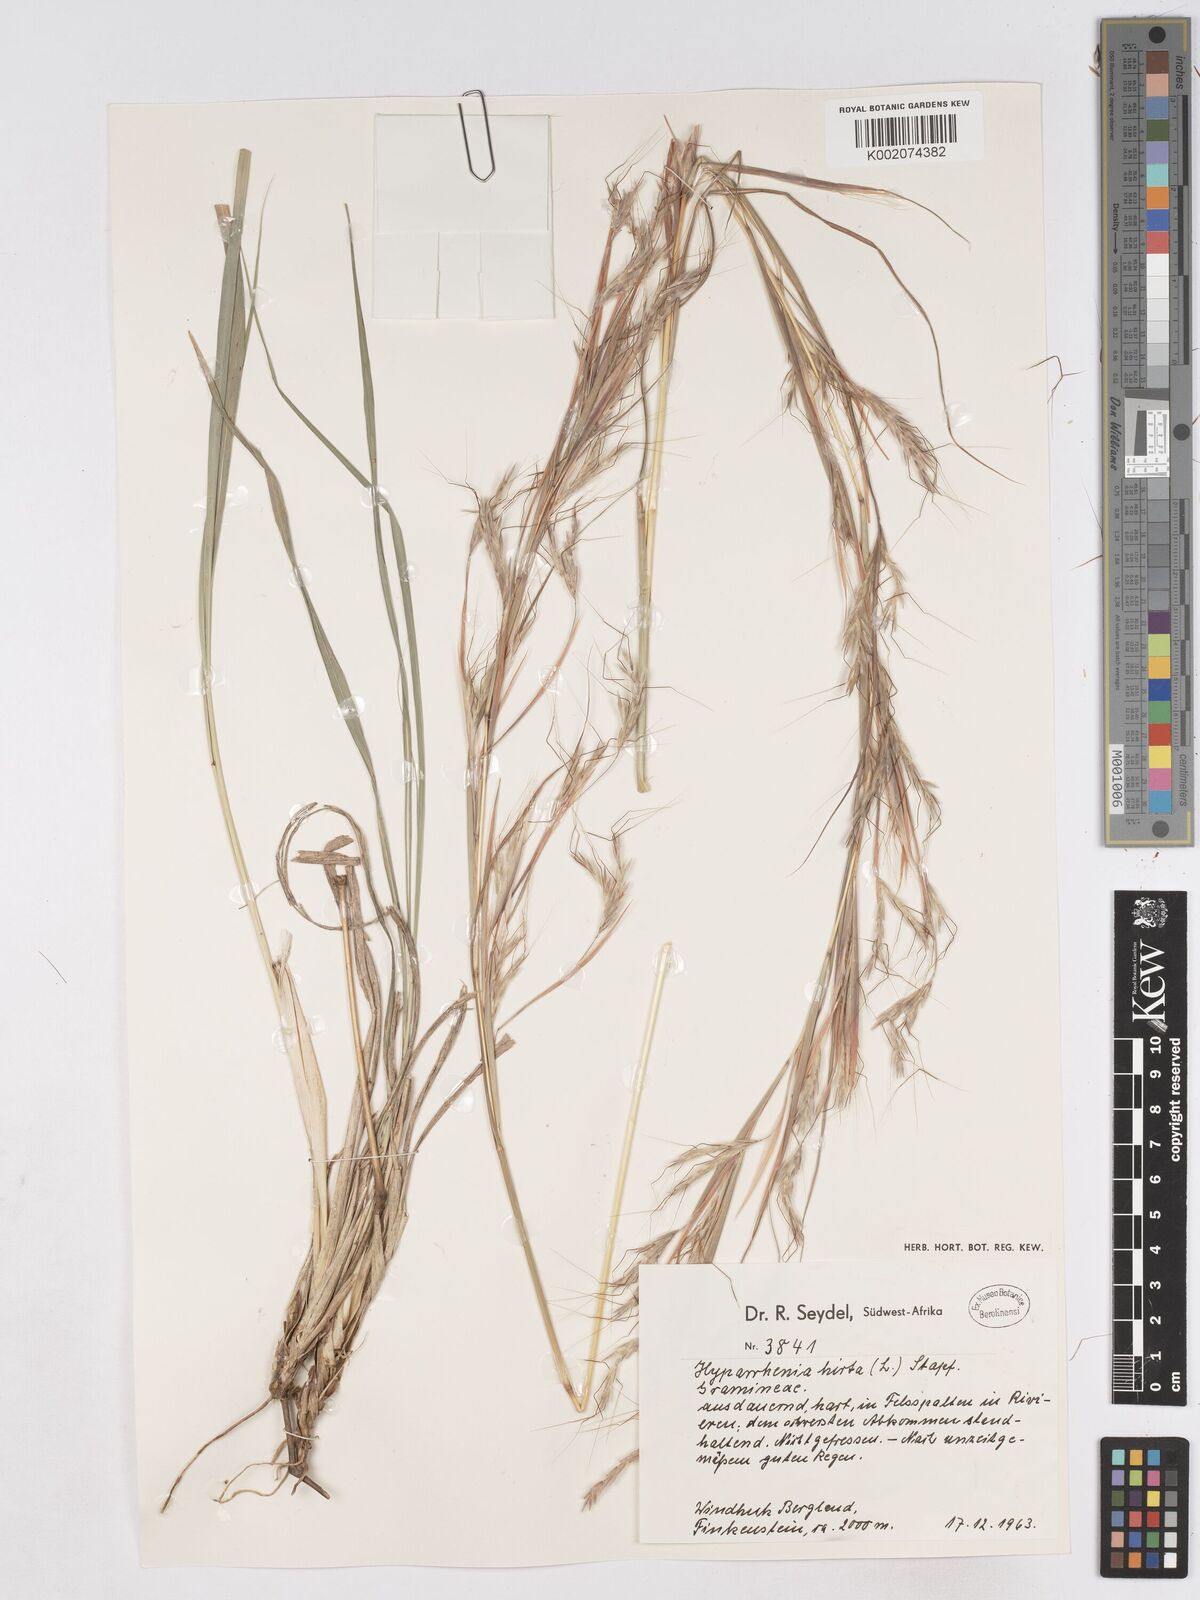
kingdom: Plantae
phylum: Tracheophyta
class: Liliopsida
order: Poales
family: Poaceae
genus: Hyparrhenia
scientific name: Hyparrhenia hirta
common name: Thatching grass
